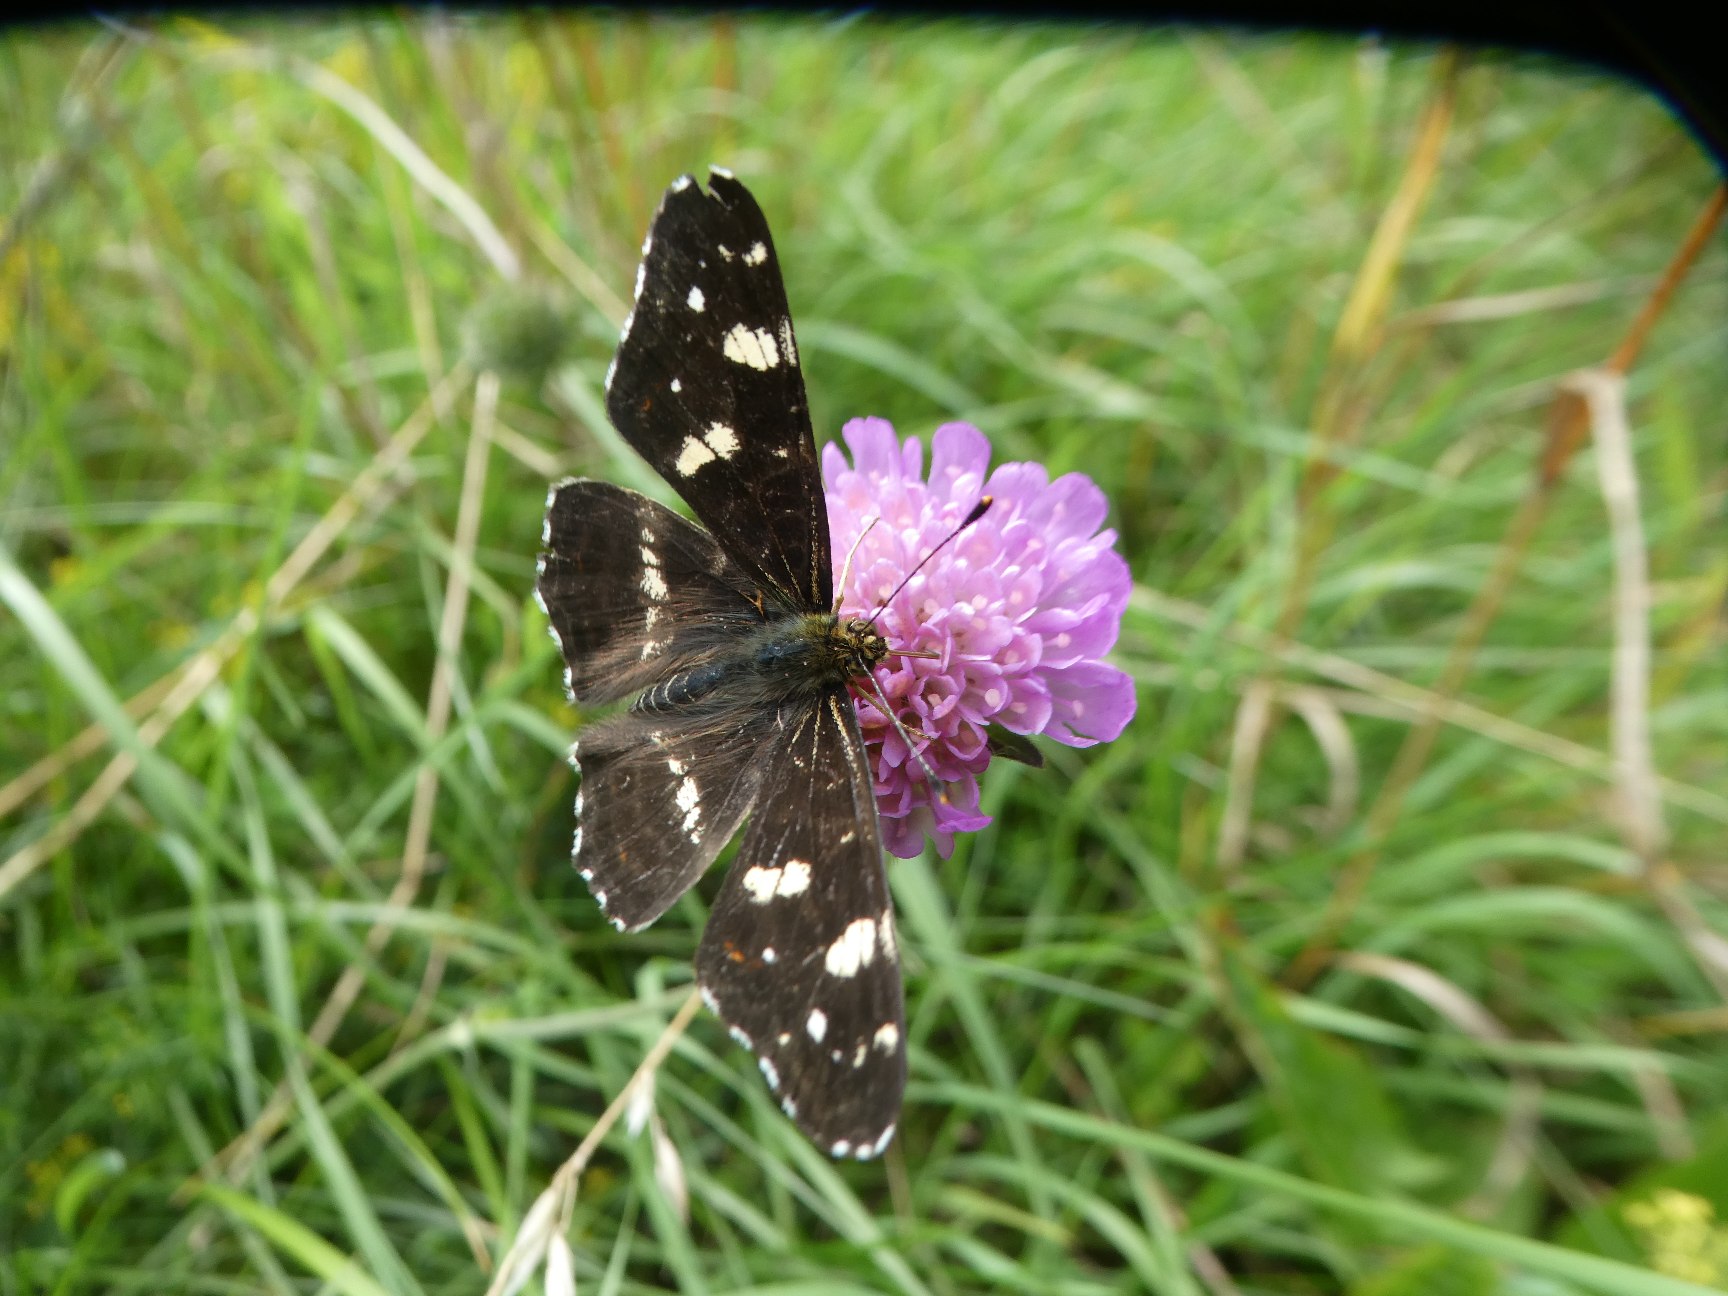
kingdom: Animalia
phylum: Arthropoda
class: Insecta
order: Lepidoptera
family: Nymphalidae
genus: Araschnia
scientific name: Araschnia levana
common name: Nældesommerfugl
